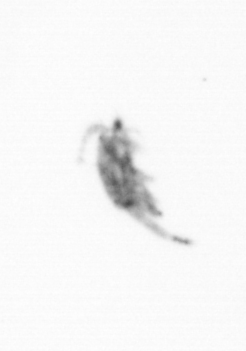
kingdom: Animalia
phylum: Arthropoda
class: Copepoda
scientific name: Copepoda
